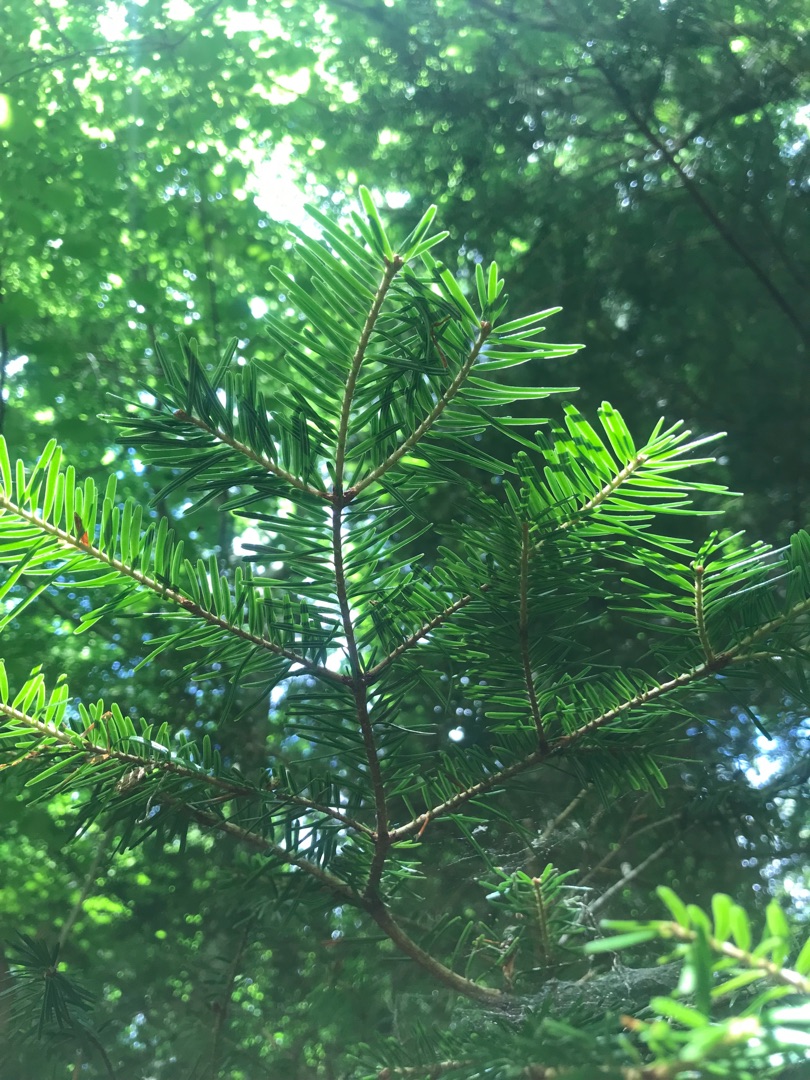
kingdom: Plantae
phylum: Tracheophyta
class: Pinopsida
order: Pinales
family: Pinaceae
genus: Abies
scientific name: Abies grandis
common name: Kæmpegran
